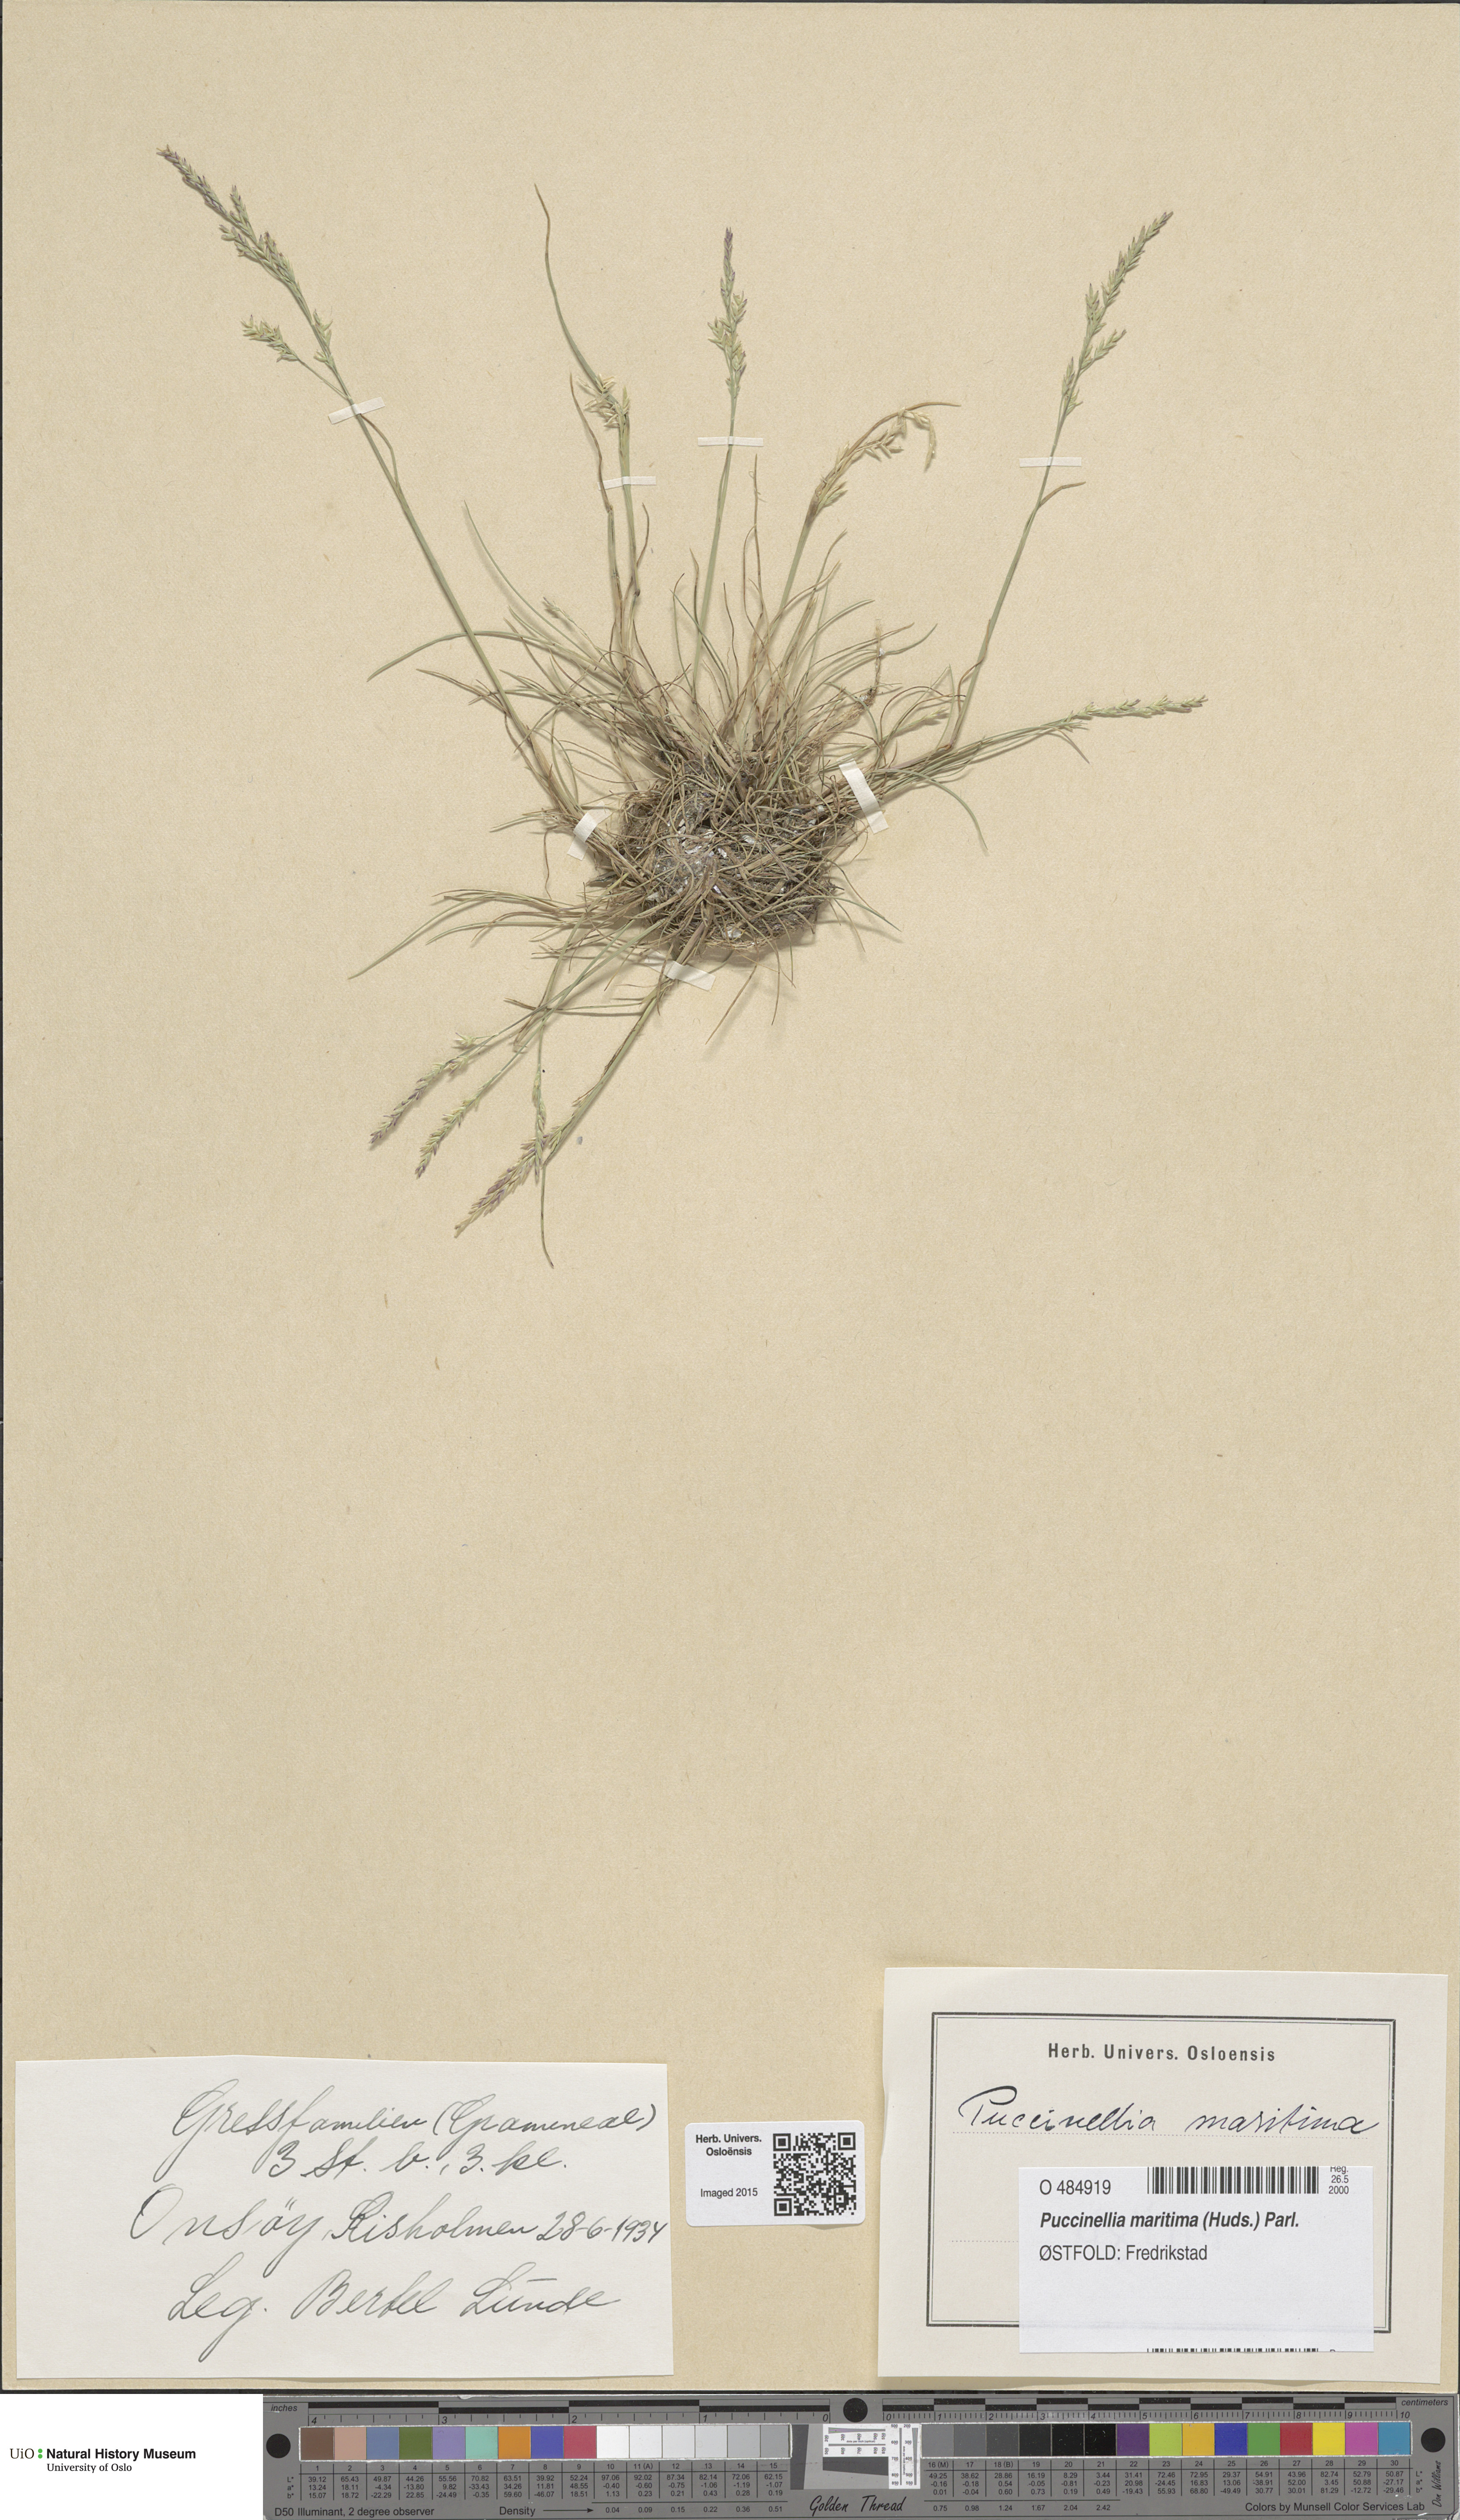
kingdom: Plantae
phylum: Tracheophyta
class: Liliopsida
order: Poales
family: Poaceae
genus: Puccinellia
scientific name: Puccinellia maritima
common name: Common saltmarsh grass
